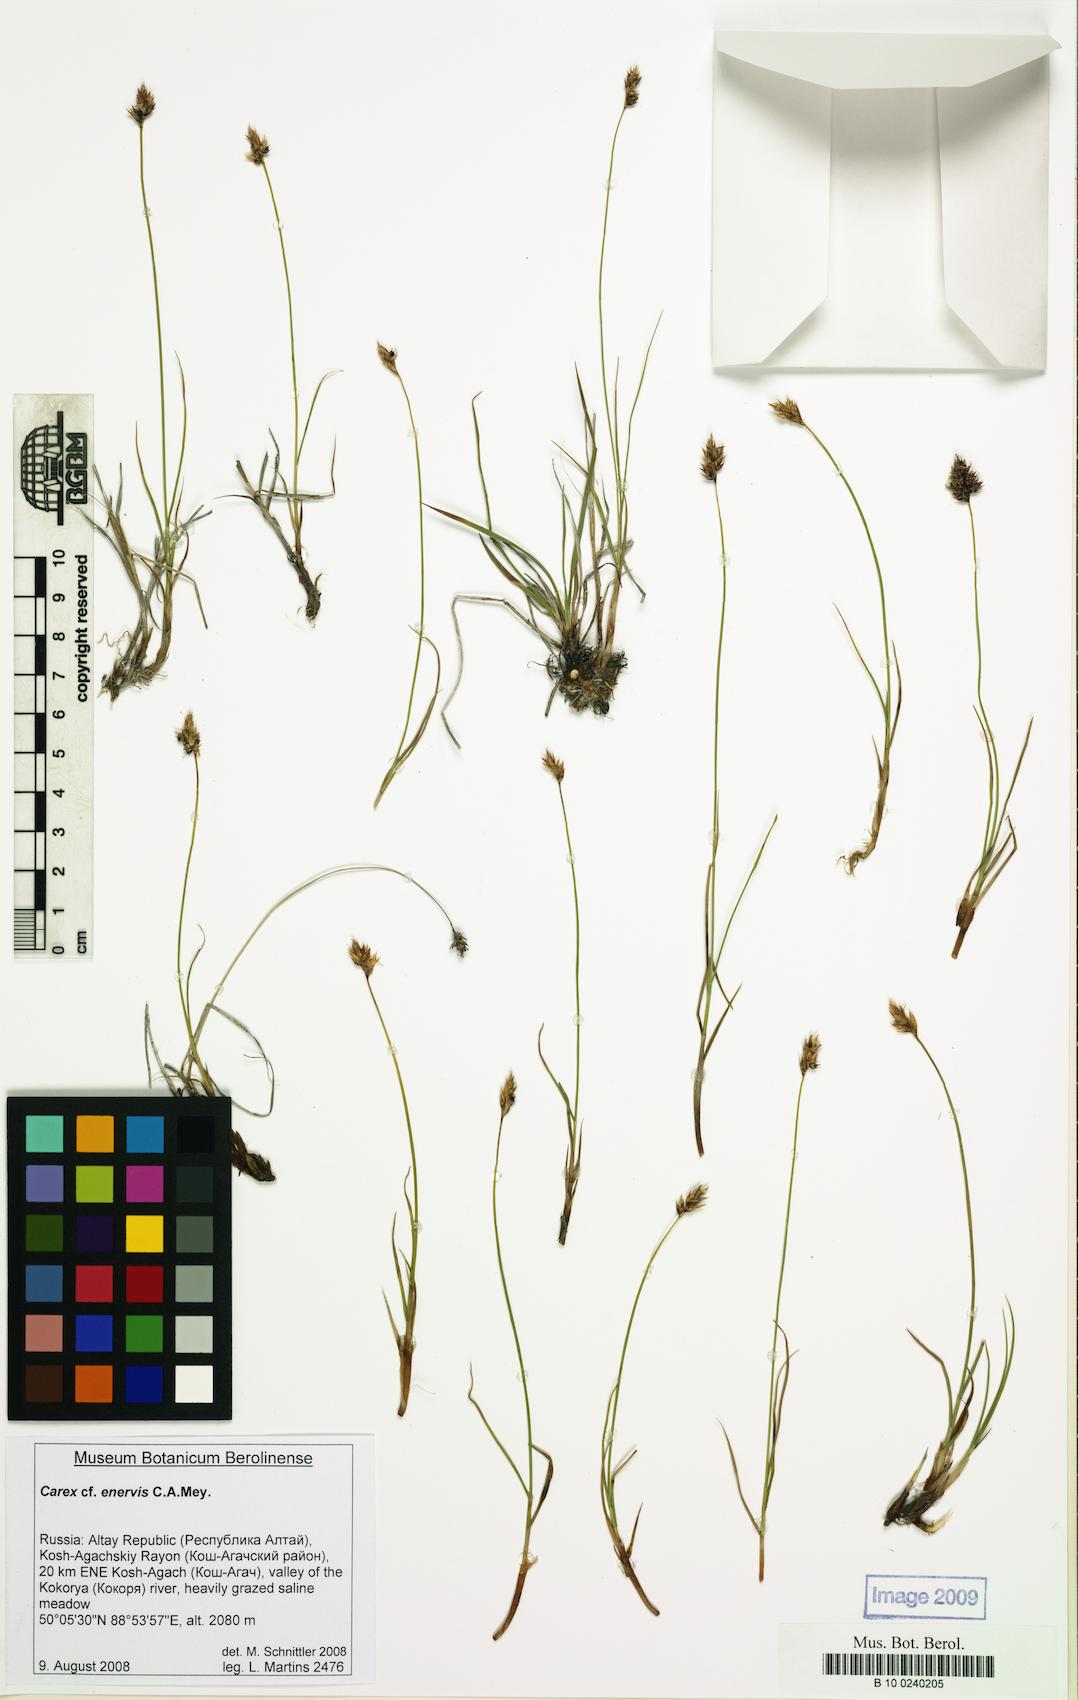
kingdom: Plantae
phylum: Tracheophyta
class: Liliopsida
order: Poales
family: Cyperaceae
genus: Carex
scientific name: Carex enervis
